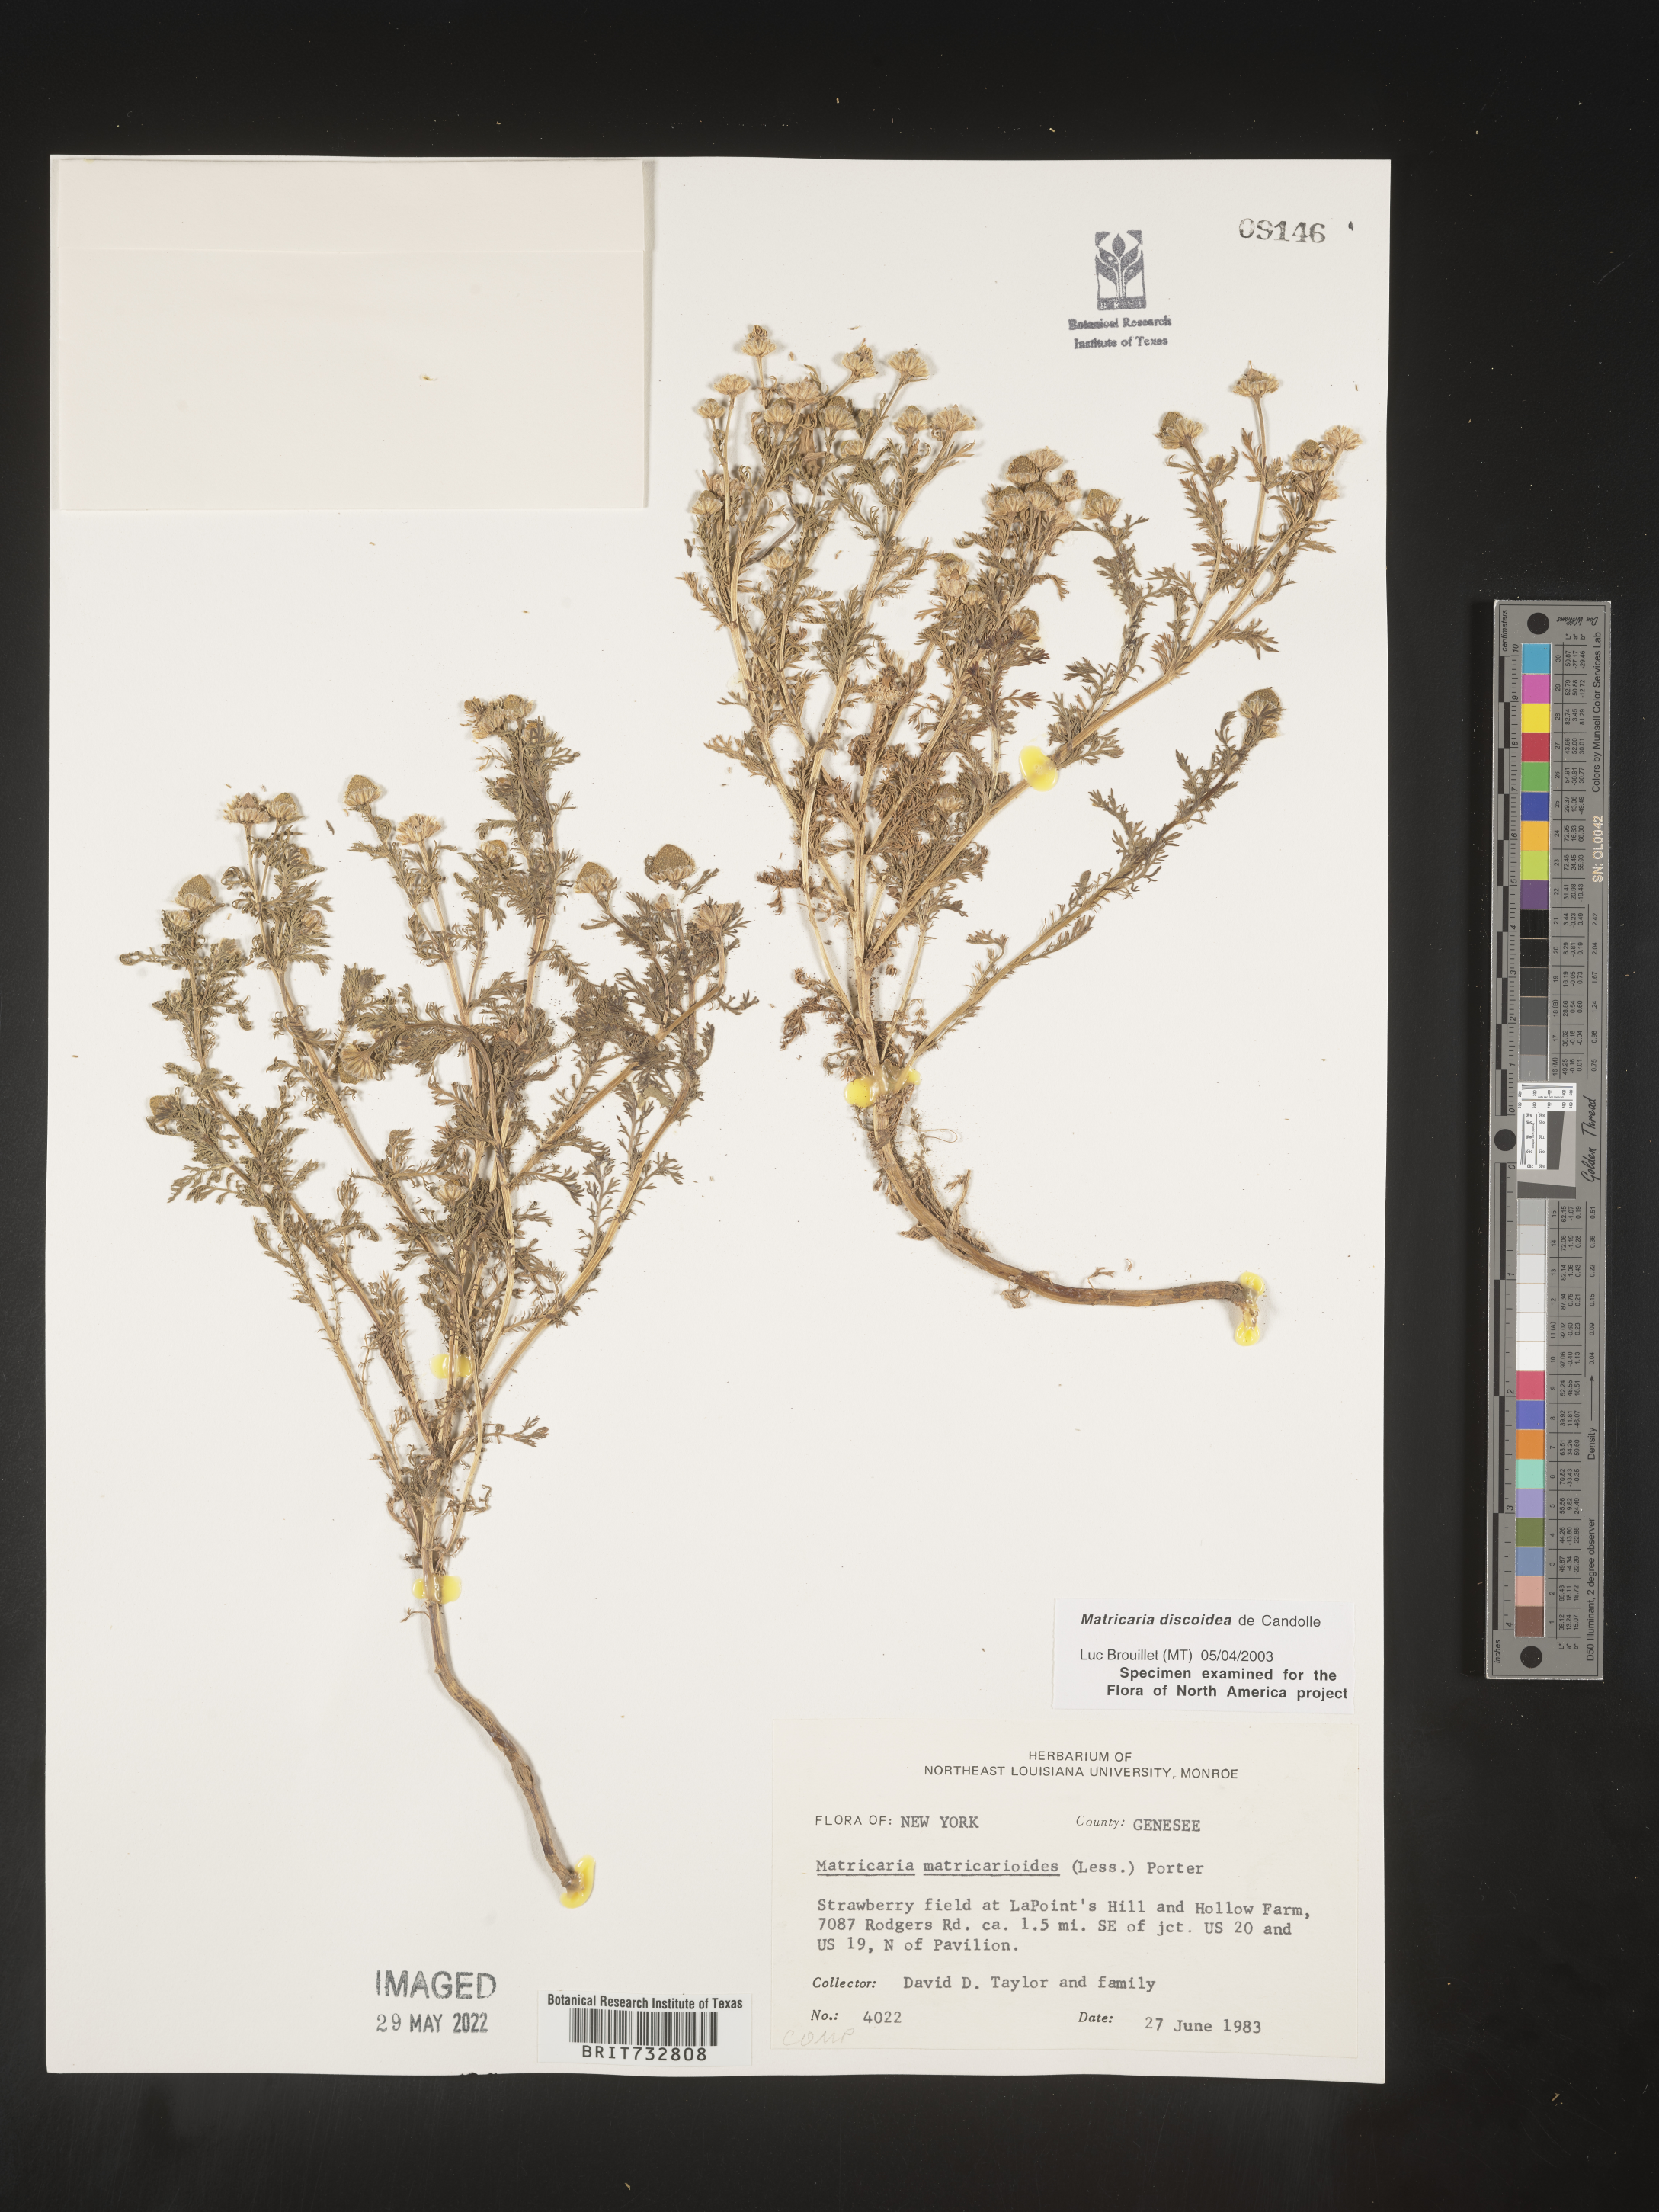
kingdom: Plantae
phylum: Tracheophyta
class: Magnoliopsida
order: Asterales
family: Asteraceae
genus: Matricaria
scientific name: Matricaria discoidea
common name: Disc mayweed
